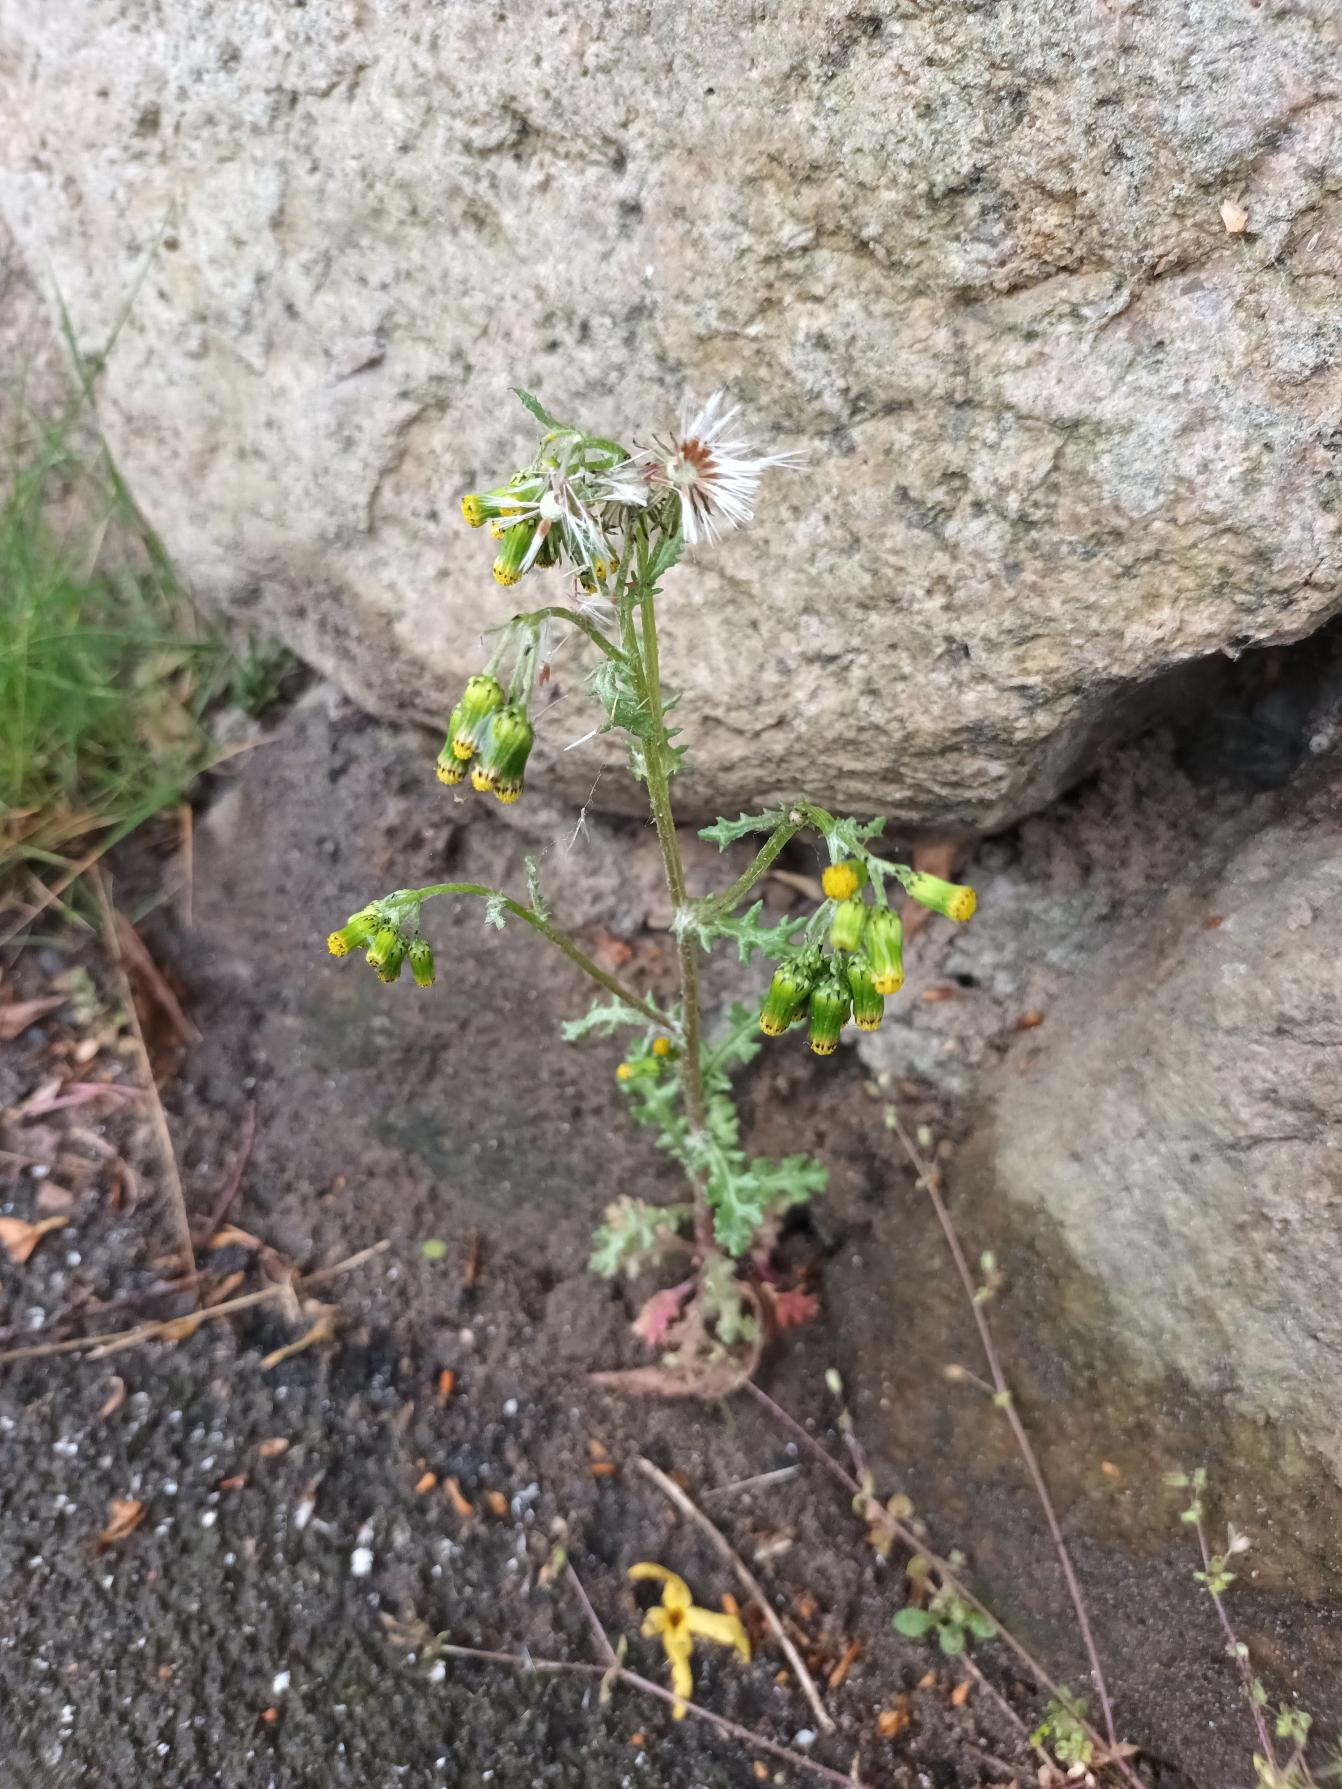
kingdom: Plantae
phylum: Tracheophyta
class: Magnoliopsida
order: Asterales
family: Asteraceae
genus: Senecio
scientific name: Senecio vulgaris
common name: Almindelig brandbæger
